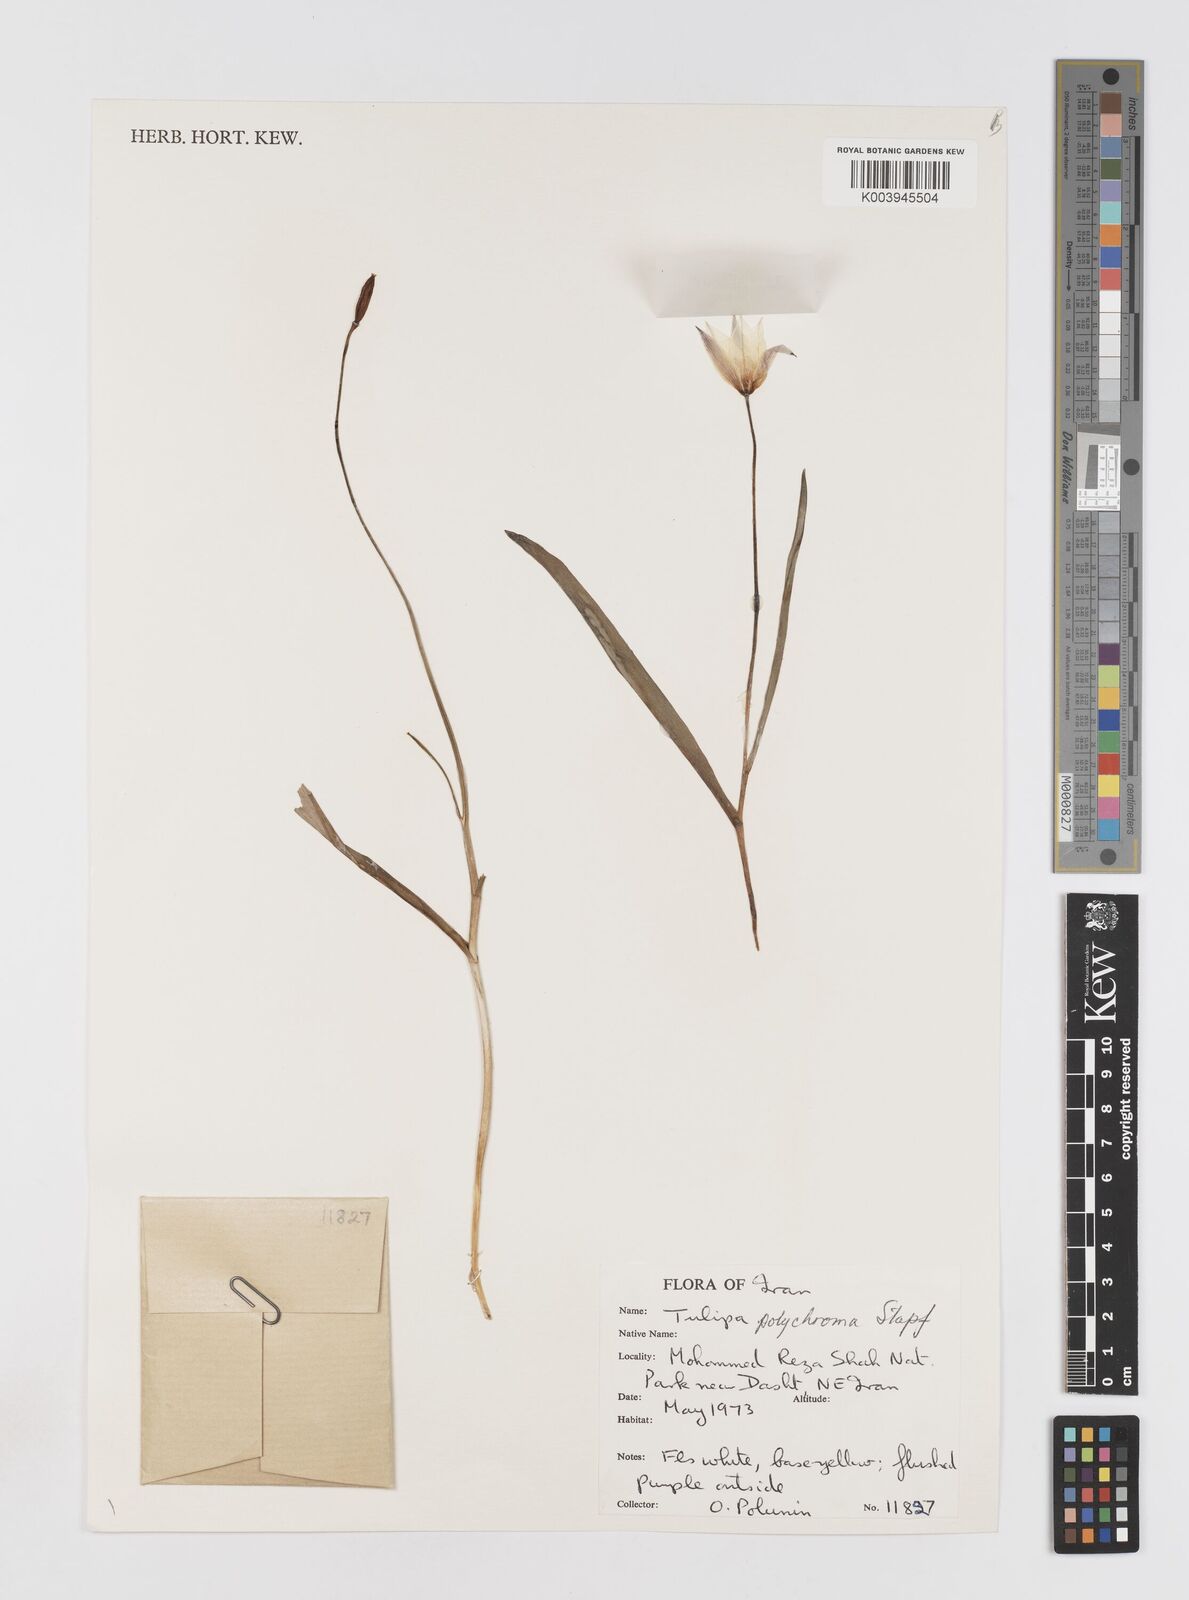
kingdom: Plantae
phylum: Tracheophyta
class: Liliopsida
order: Liliales
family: Liliaceae
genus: Tulipa
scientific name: Tulipa biflora
